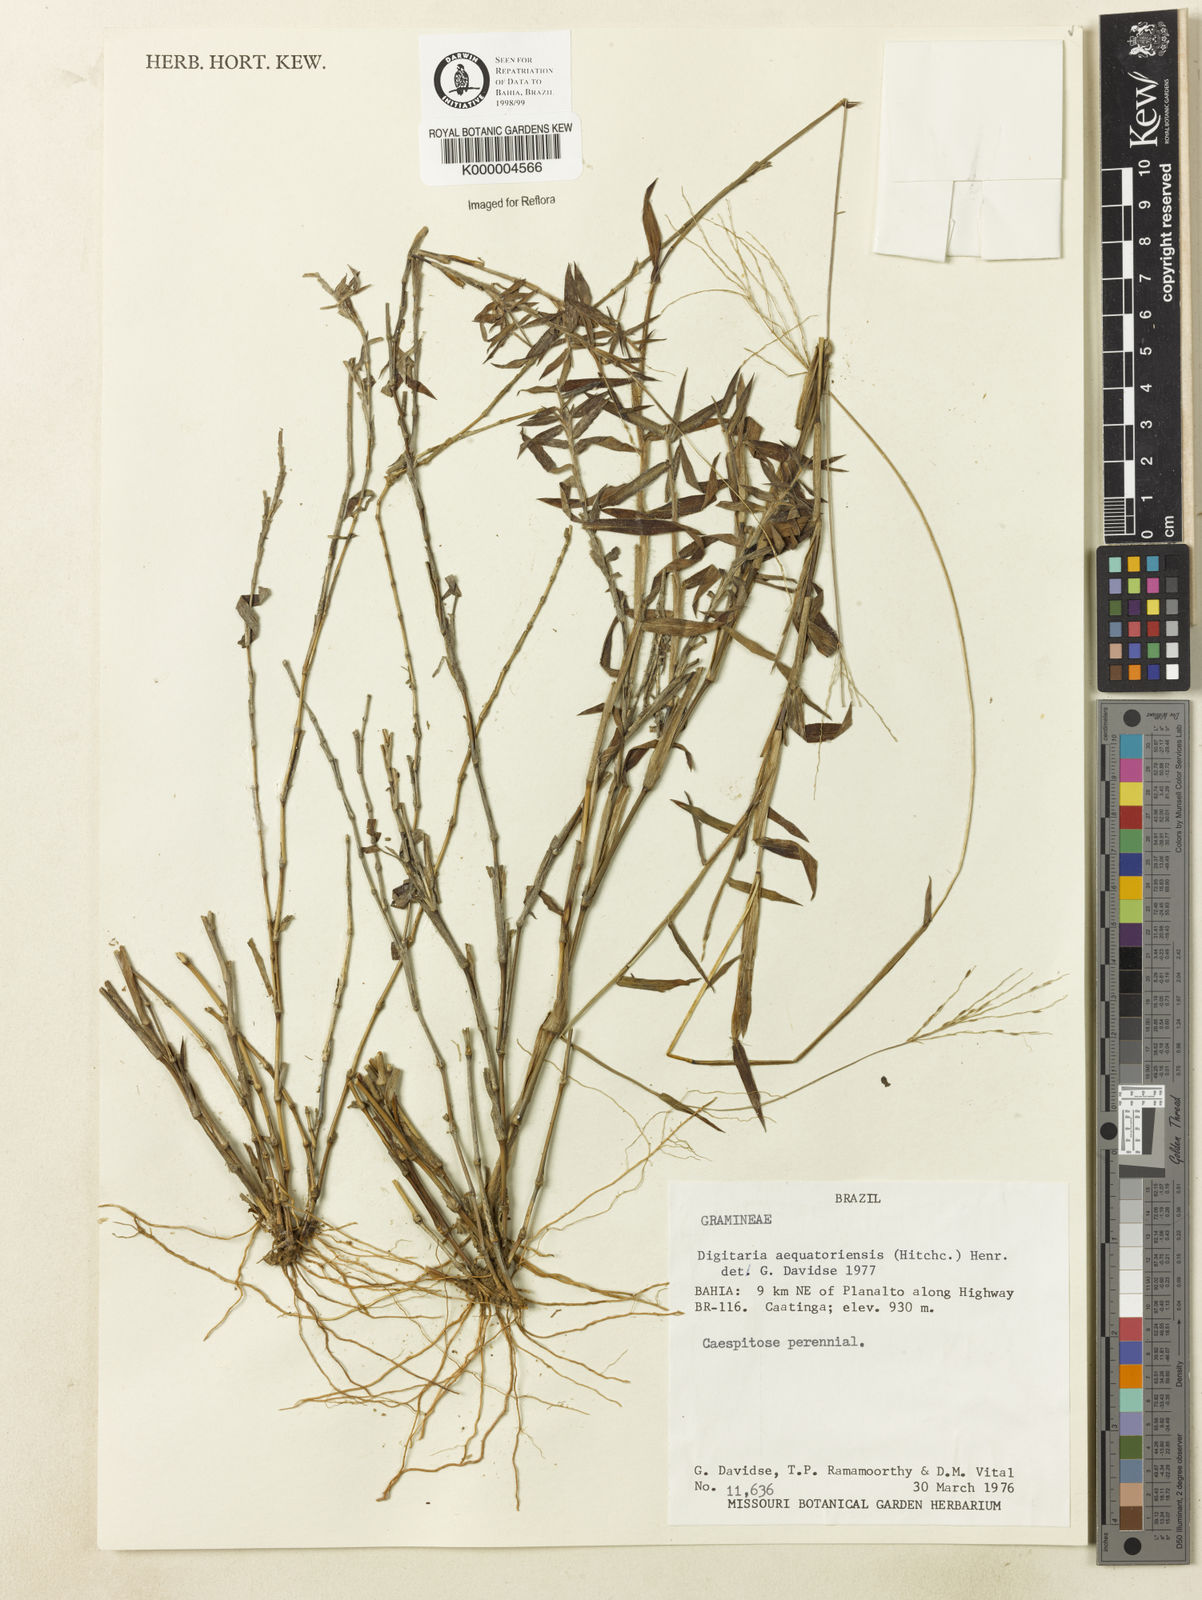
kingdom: Plantae
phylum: Tracheophyta
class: Liliopsida
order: Poales
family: Poaceae
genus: Digitaria
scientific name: Digitaria pittieri
